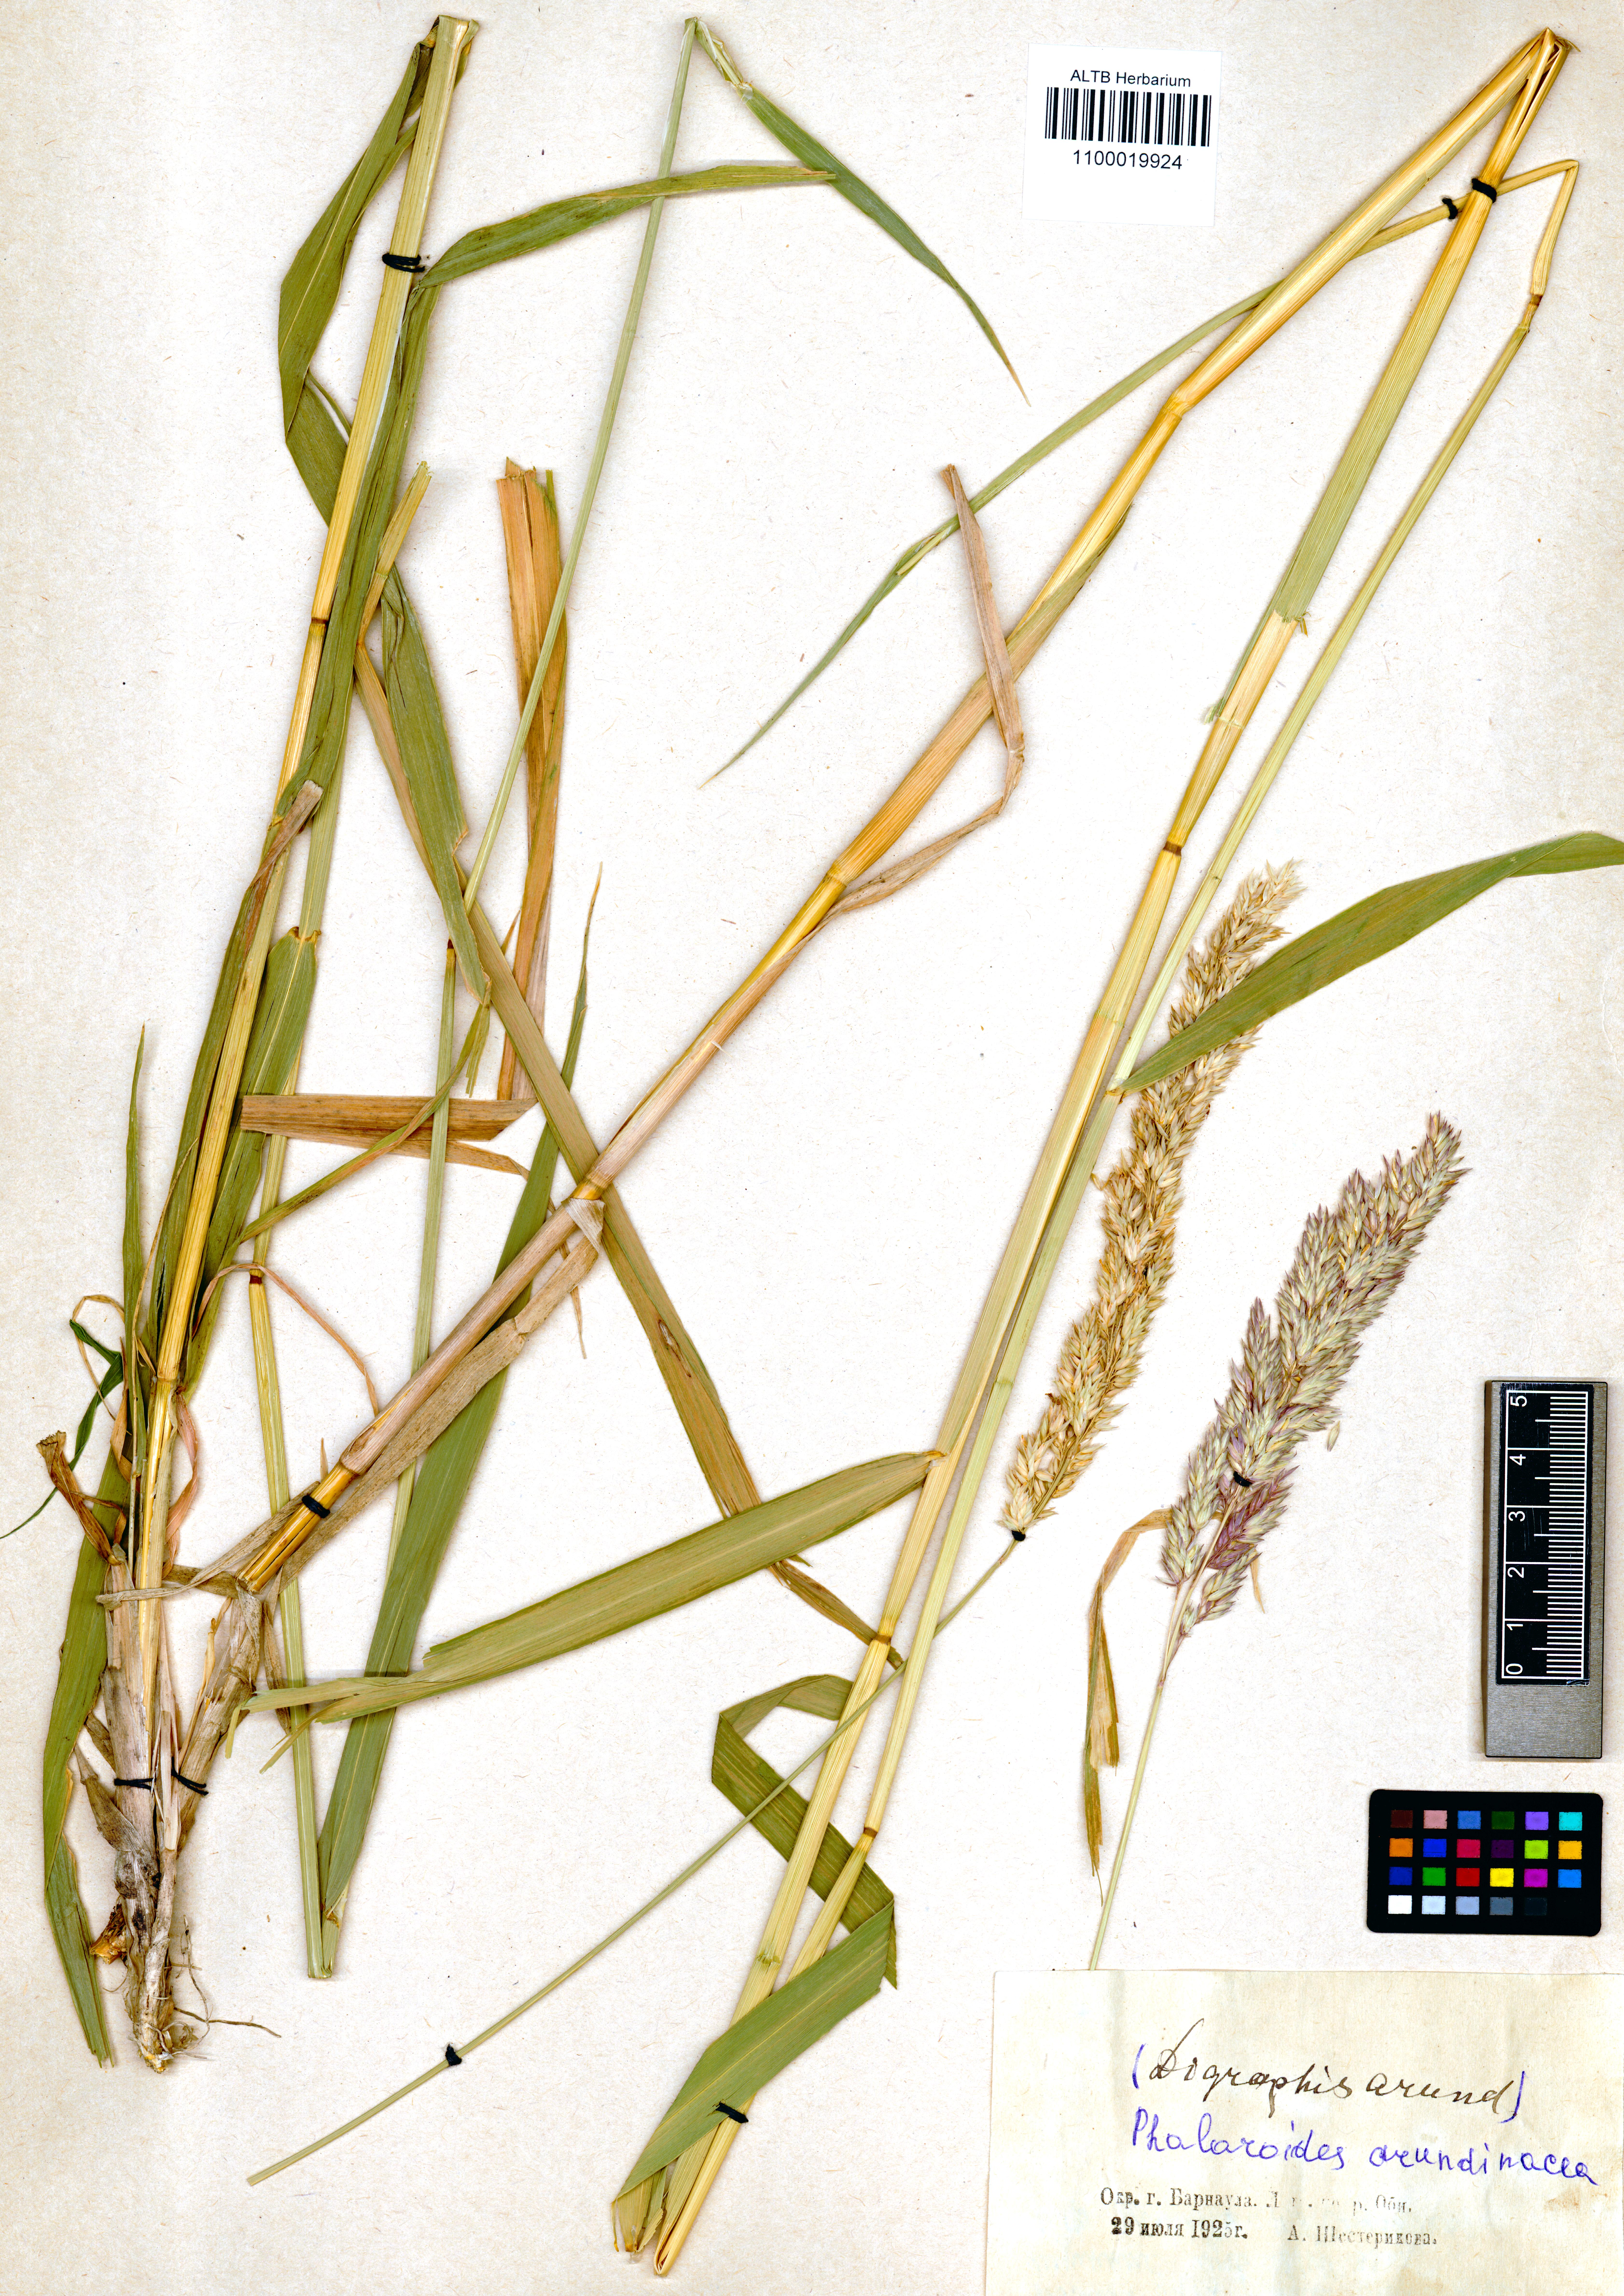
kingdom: Plantae
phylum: Tracheophyta
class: Liliopsida
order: Poales
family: Poaceae
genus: Phalaris
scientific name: Phalaris arundinacea
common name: Reed canary-grass
